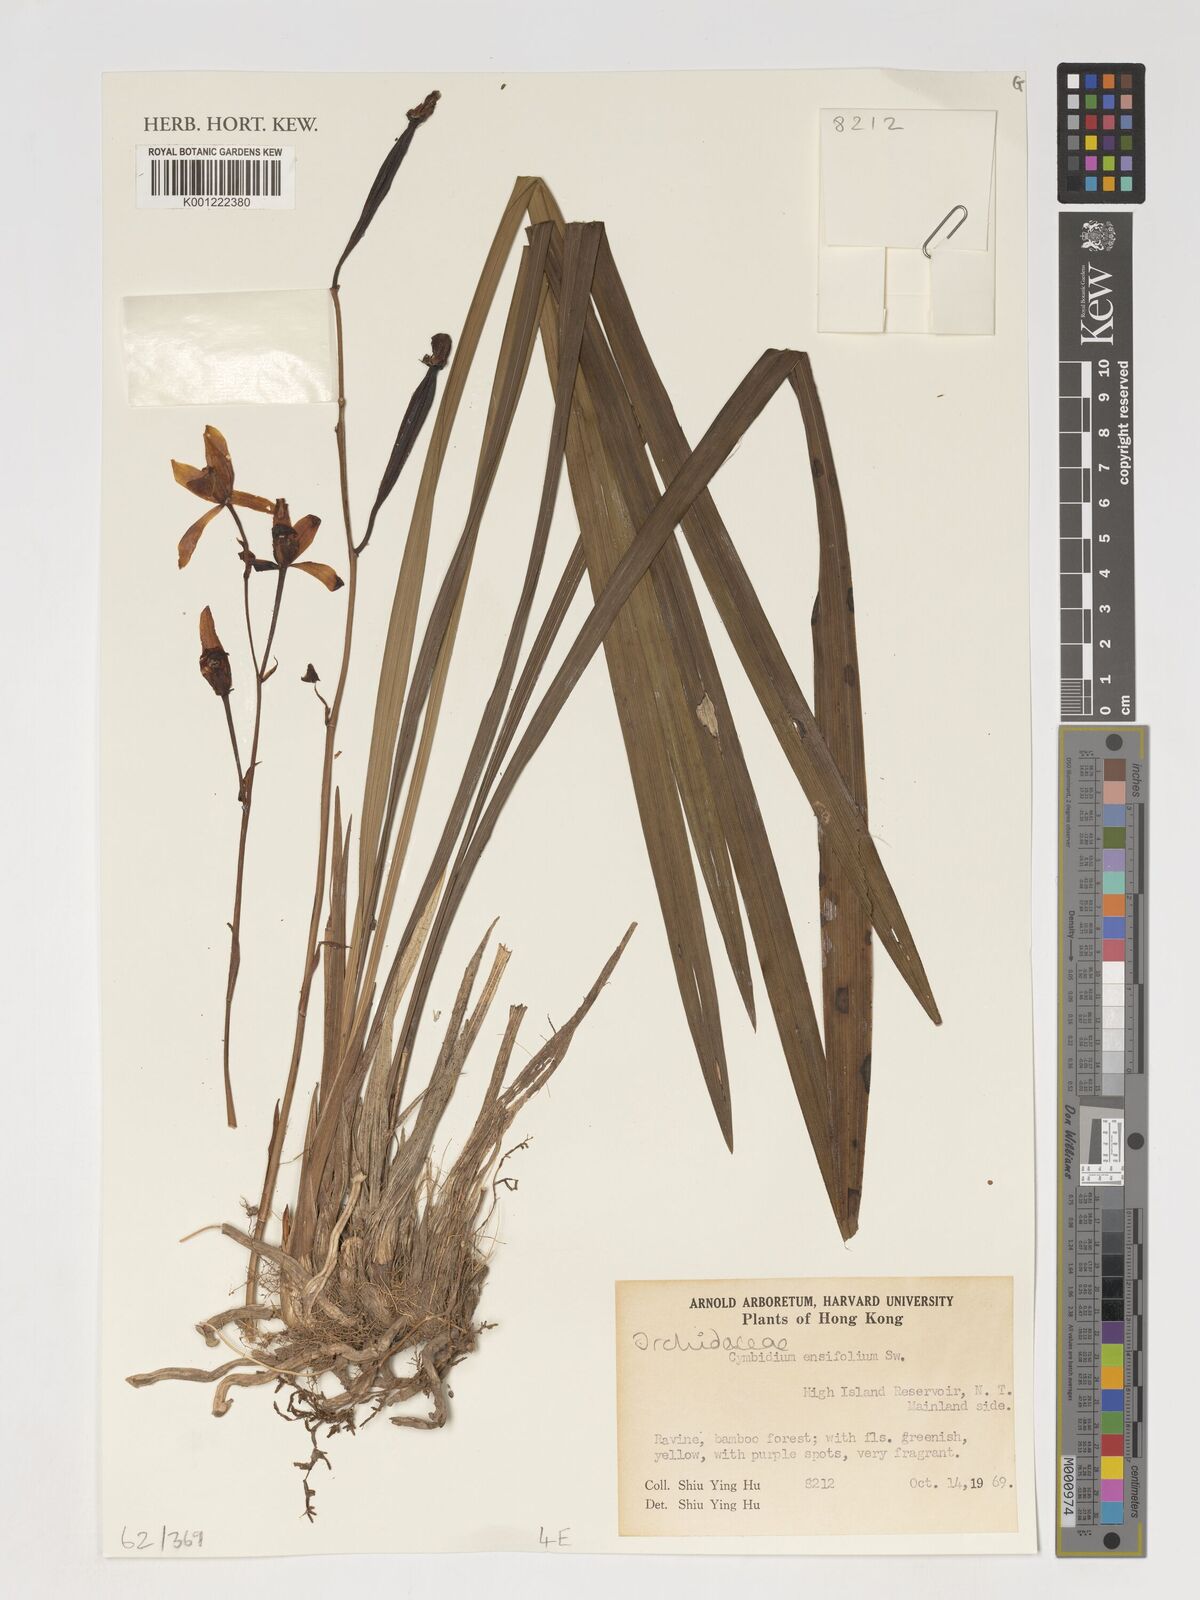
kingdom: Plantae
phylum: Tracheophyta
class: Liliopsida
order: Asparagales
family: Orchidaceae
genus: Cymbidium
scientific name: Cymbidium ensifolium
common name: Fukien-orchid
